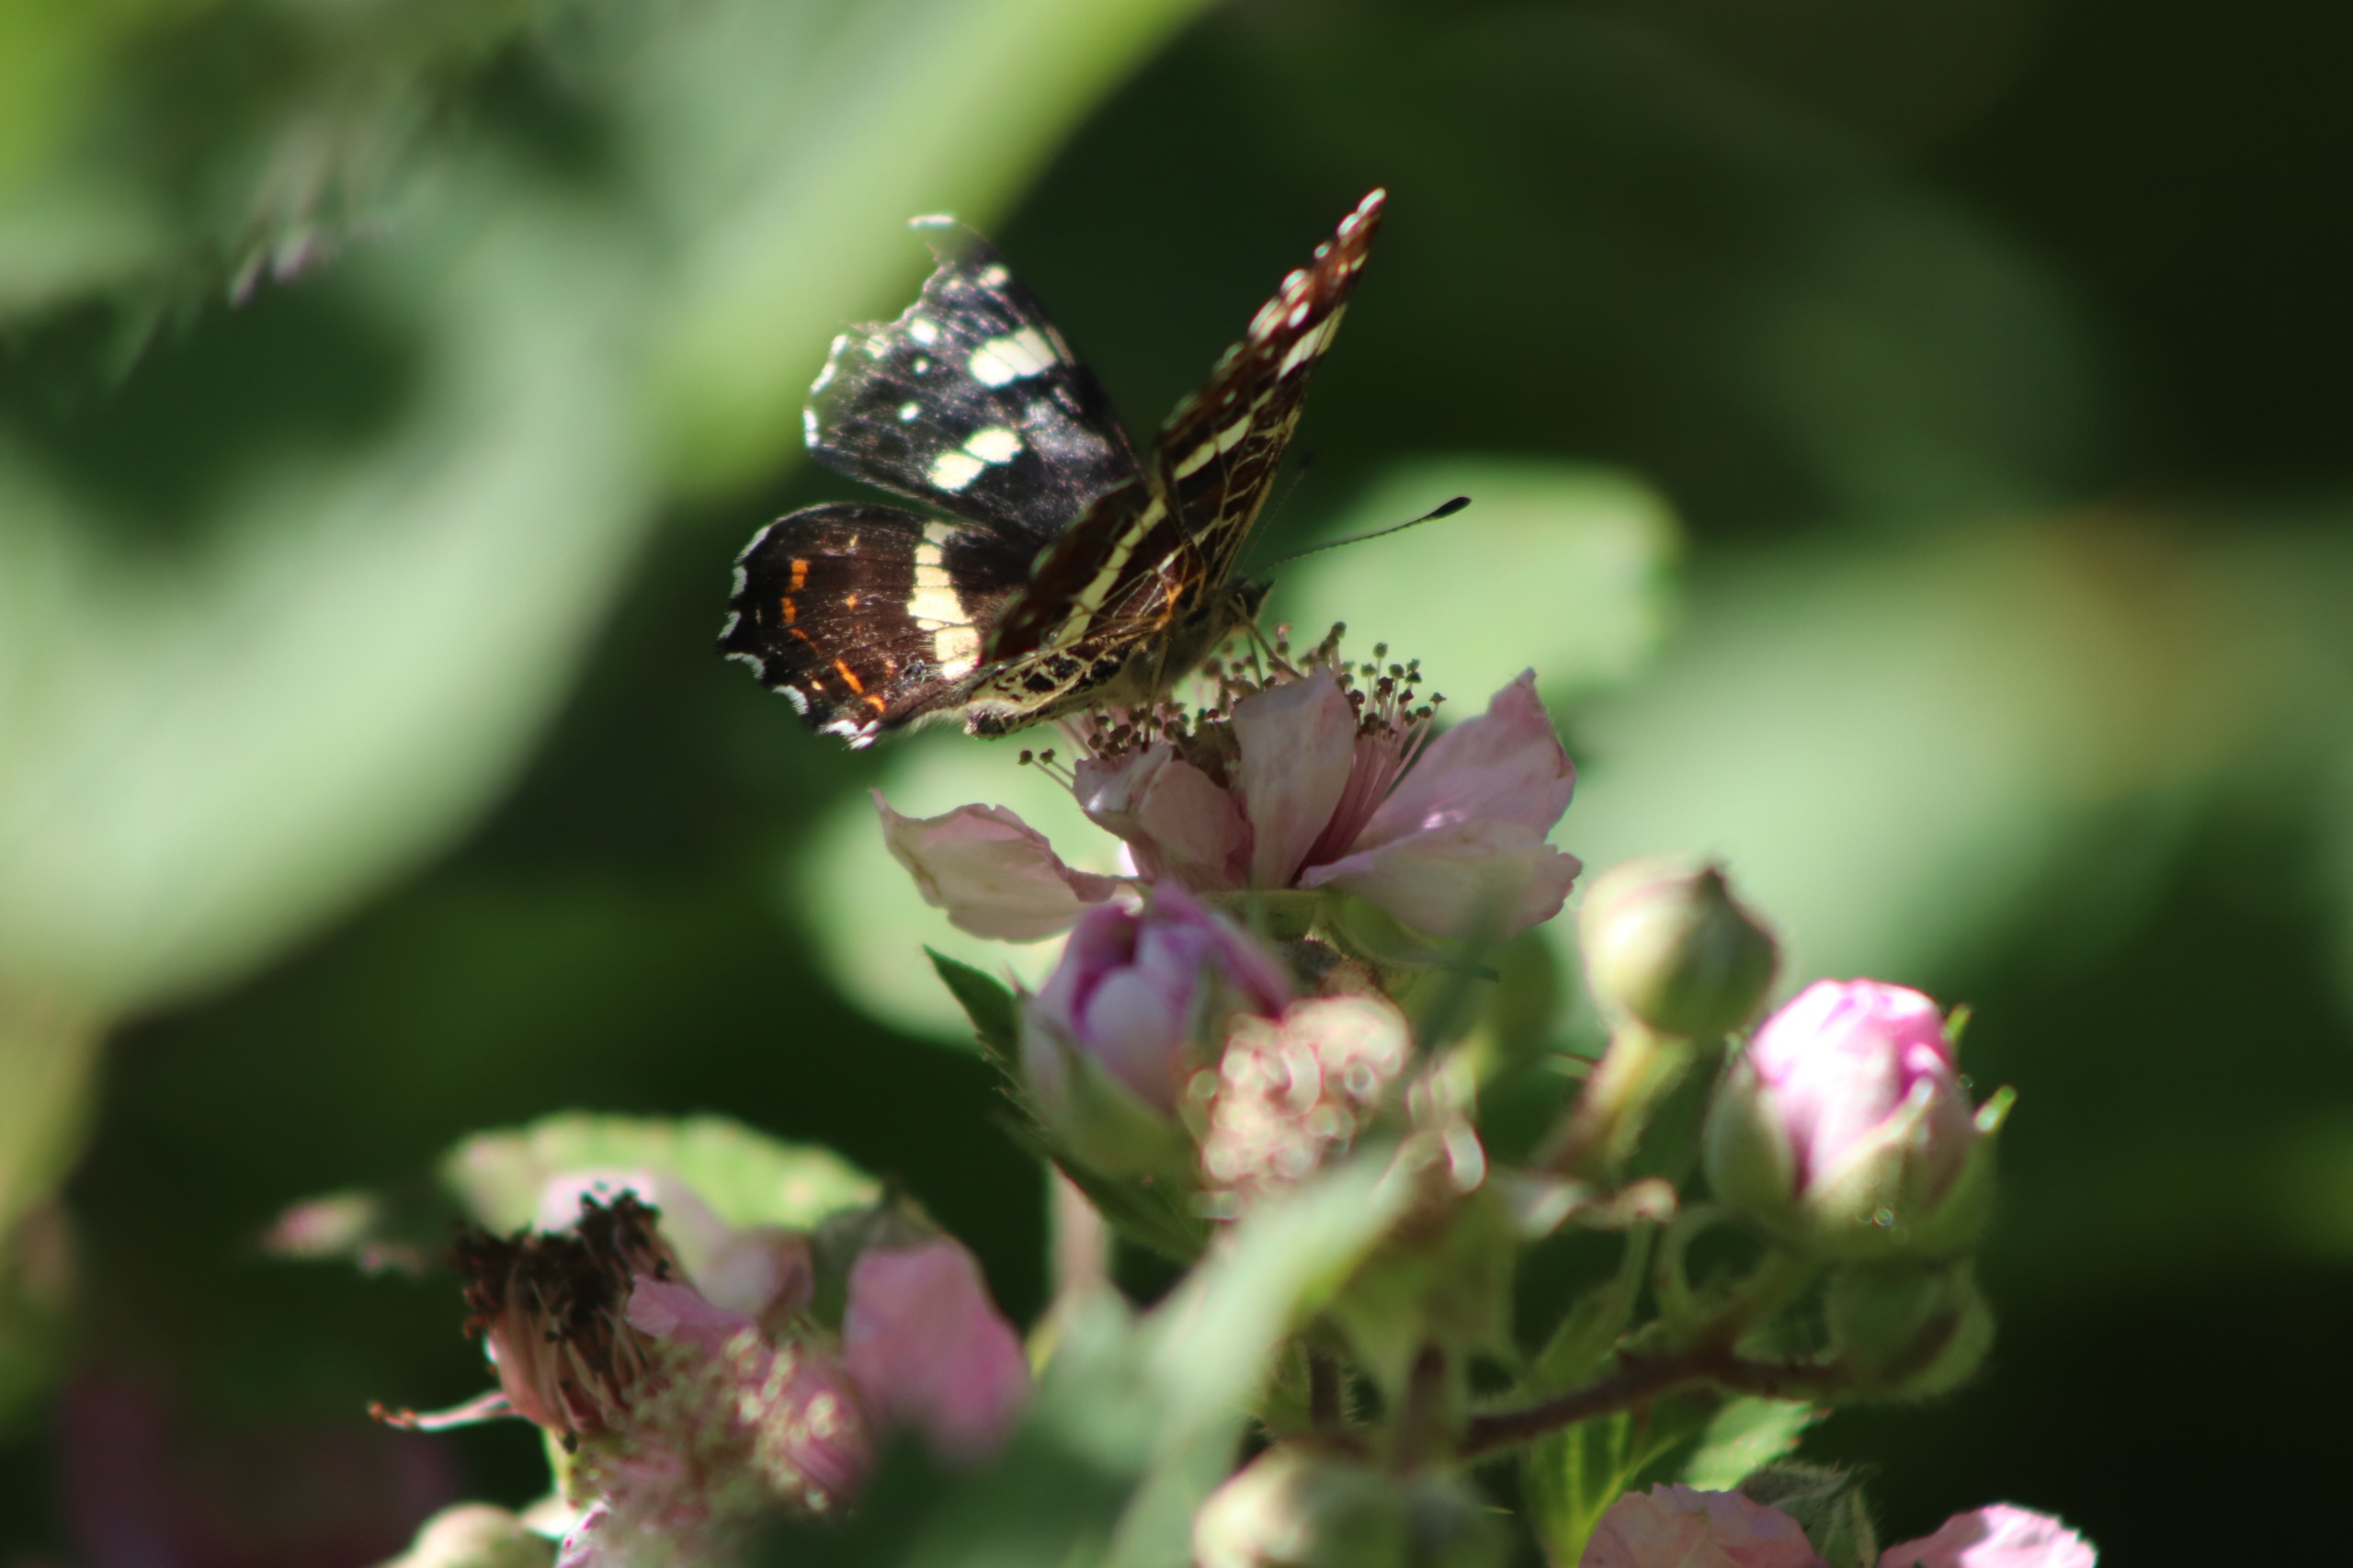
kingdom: Animalia
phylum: Arthropoda
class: Insecta
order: Lepidoptera
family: Nymphalidae
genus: Araschnia
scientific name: Araschnia levana
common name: Nældesommerfugl
